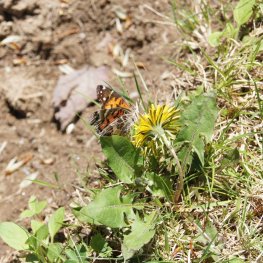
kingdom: Animalia
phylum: Arthropoda
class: Insecta
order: Lepidoptera
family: Nymphalidae
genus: Vanessa
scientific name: Vanessa virginiensis
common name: American Lady
